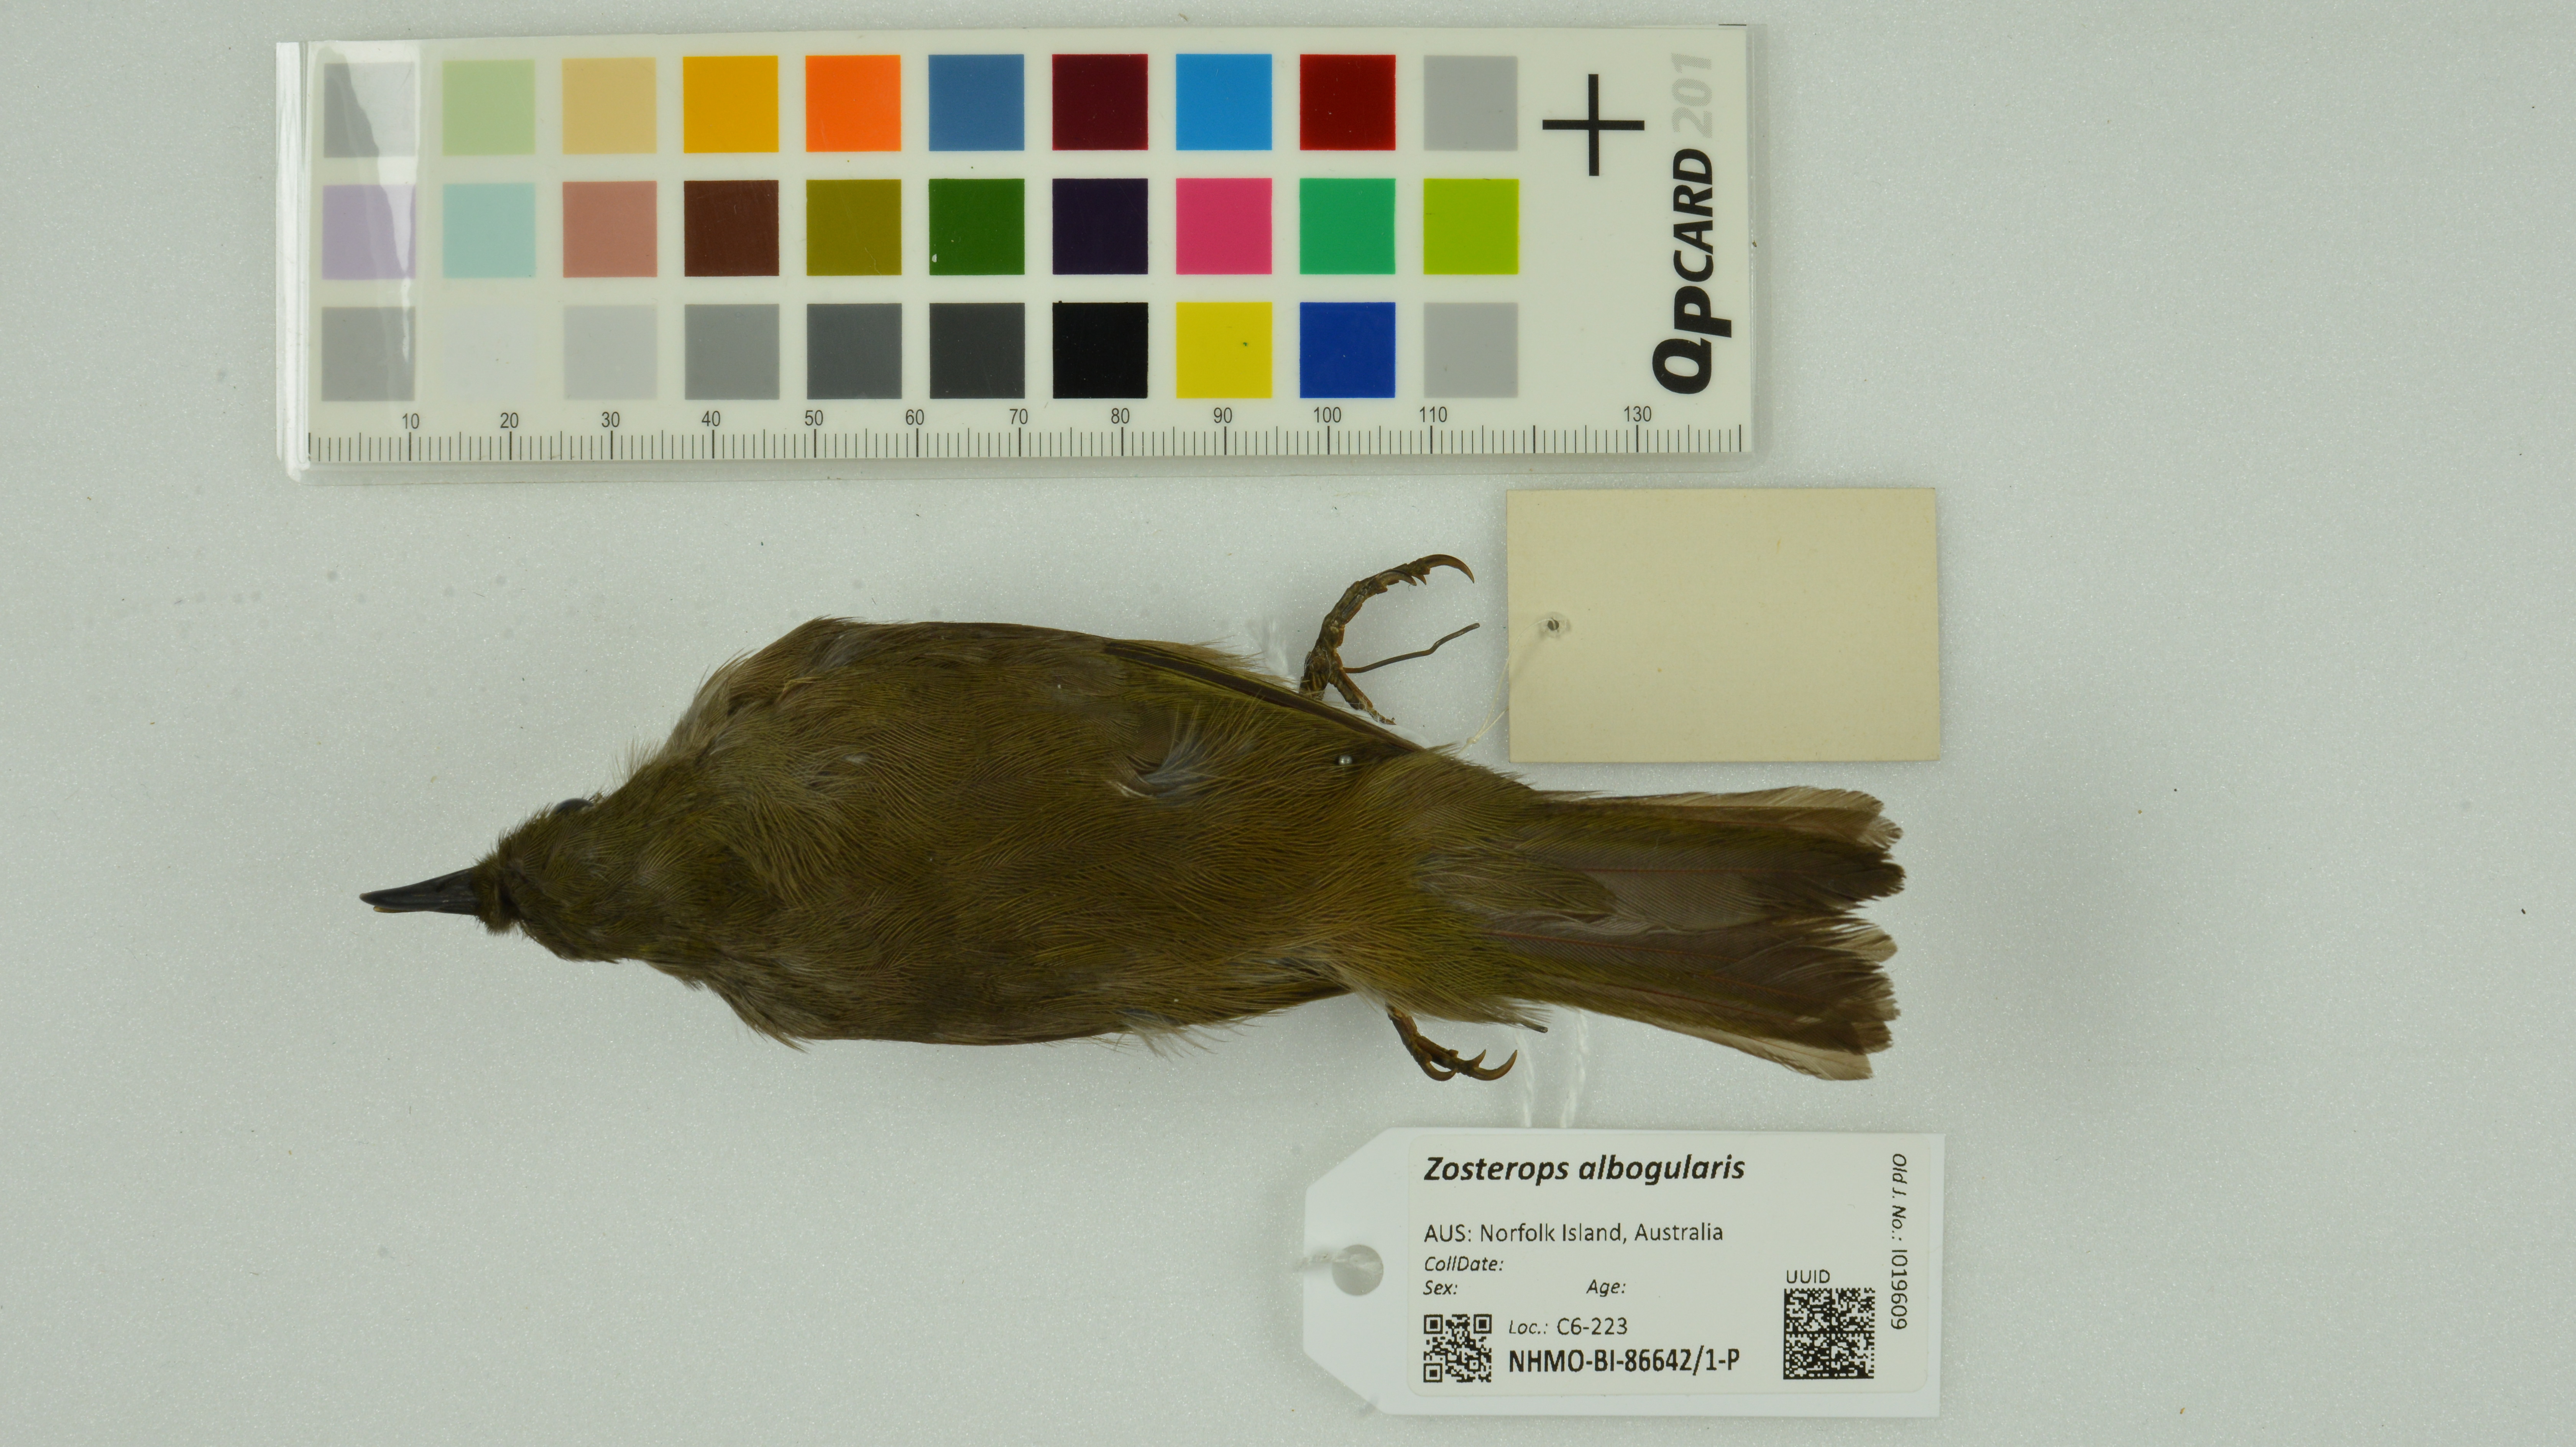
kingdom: Animalia
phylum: Chordata
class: Aves
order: Passeriformes
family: Zosteropidae
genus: Zosterops
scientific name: Zosterops albogularis
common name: White-chested white-eye
